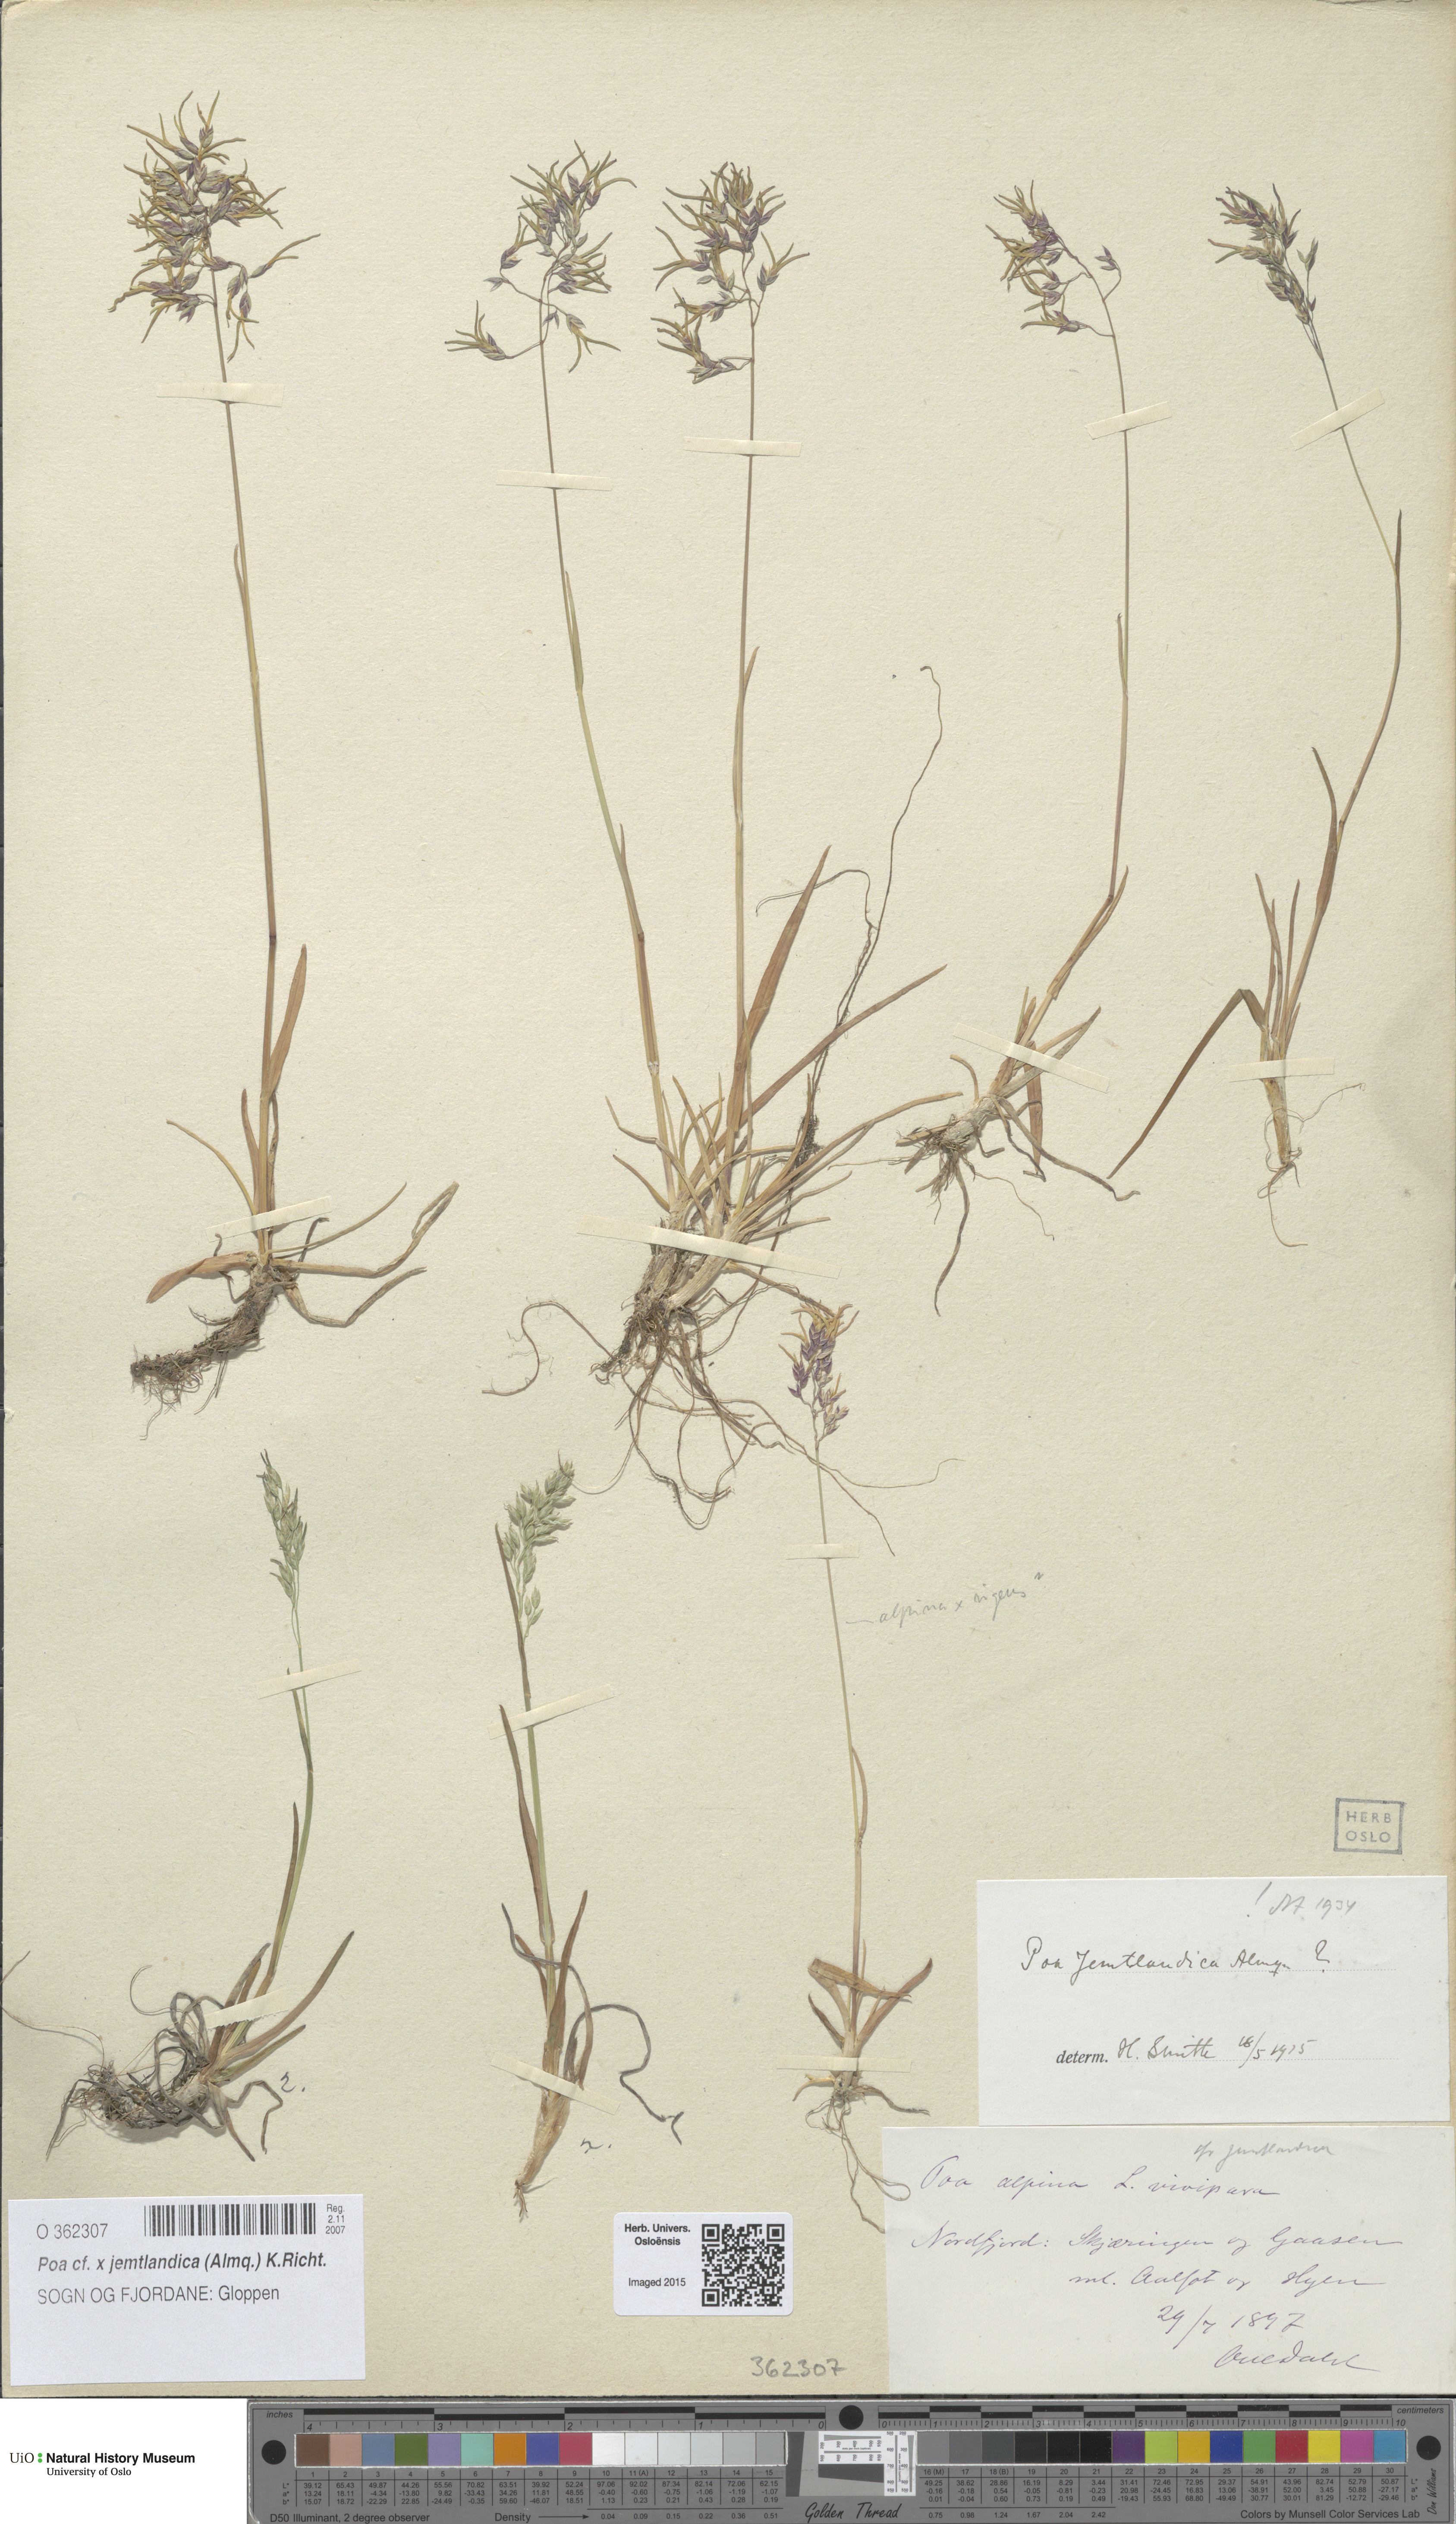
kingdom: Plantae
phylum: Tracheophyta
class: Liliopsida
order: Poales
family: Poaceae
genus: Poa
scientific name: Poa jemtlandica
